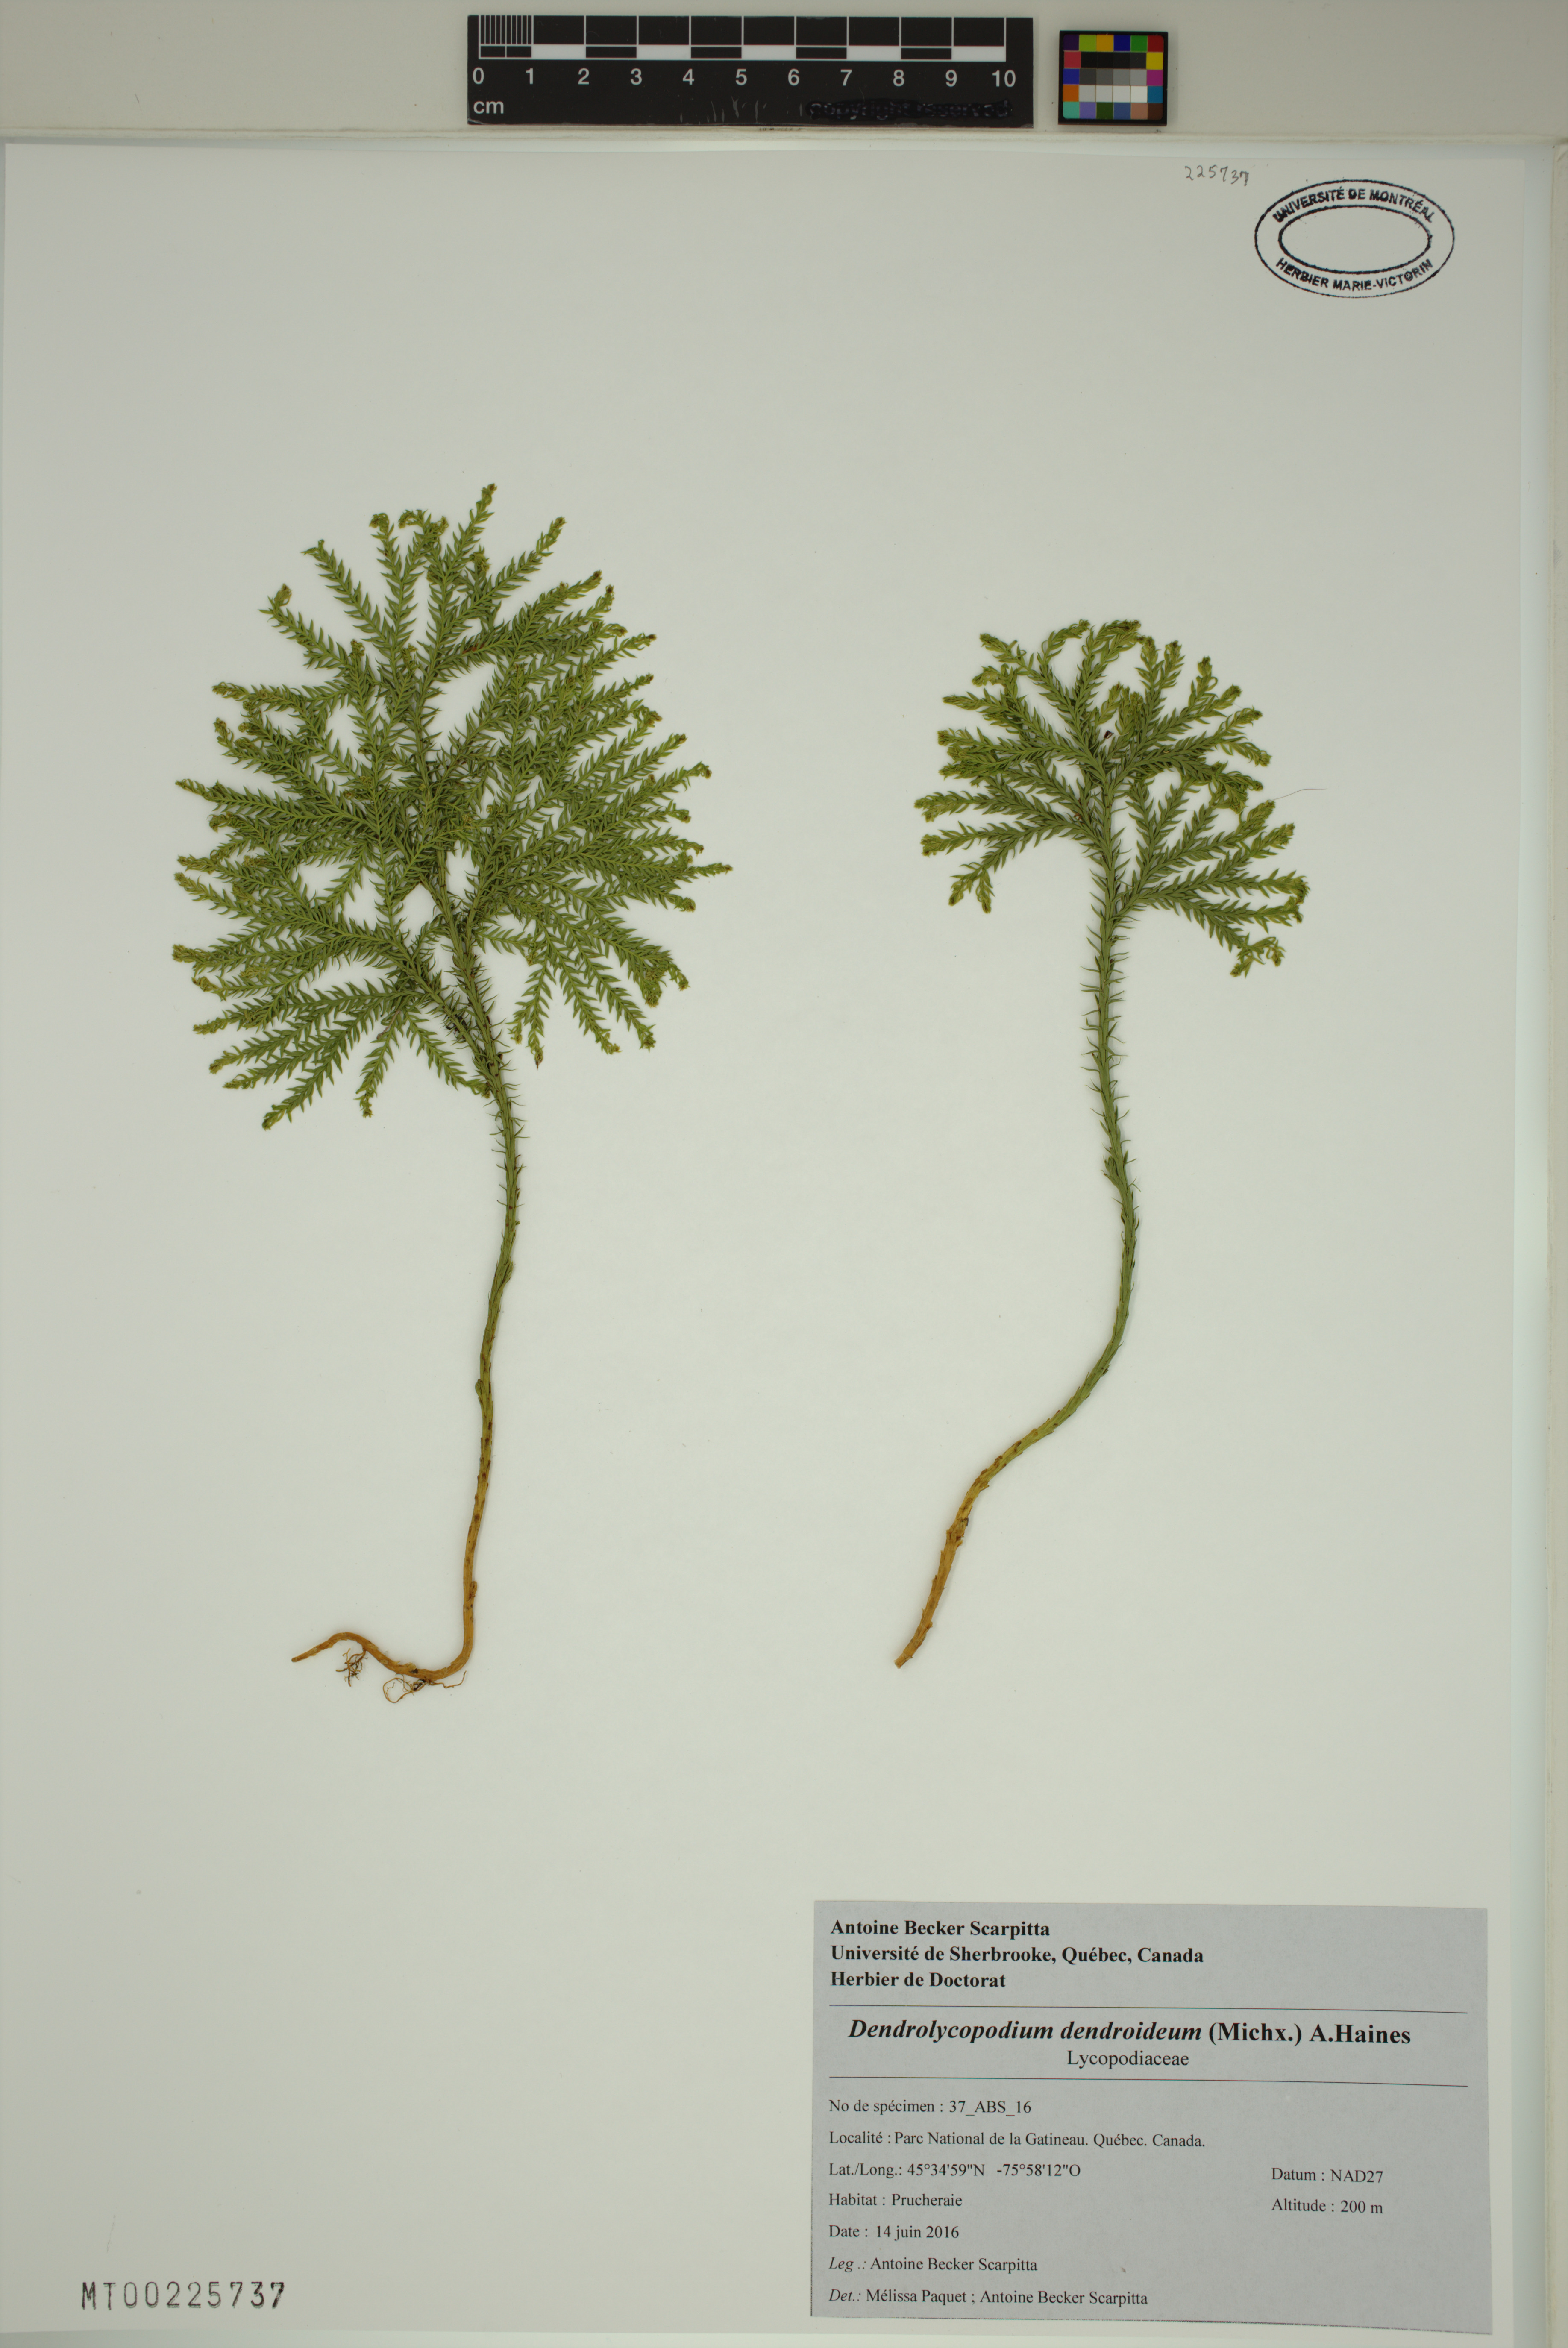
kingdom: Plantae
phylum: Tracheophyta
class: Lycopodiopsida
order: Lycopodiales
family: Lycopodiaceae
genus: Dendrolycopodium
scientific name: Dendrolycopodium dendroideum
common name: Northern tree-clubmoss
